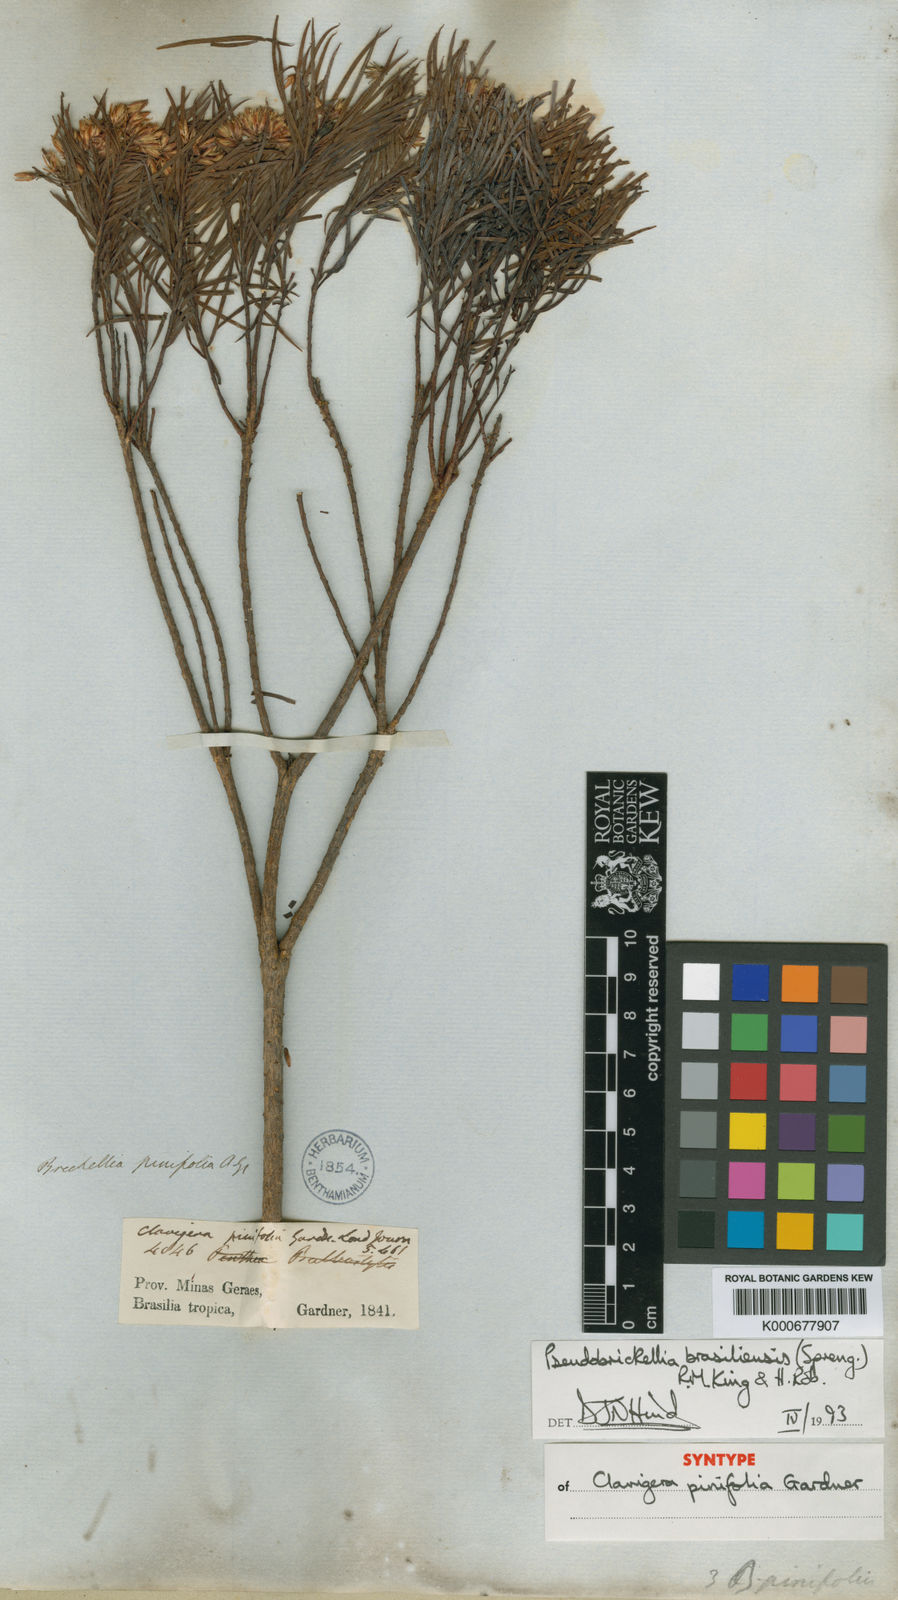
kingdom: Plantae
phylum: Tracheophyta
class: Magnoliopsida
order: Asterales
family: Asteraceae
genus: Pseudobrickellia
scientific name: Pseudobrickellia brasiliensis
